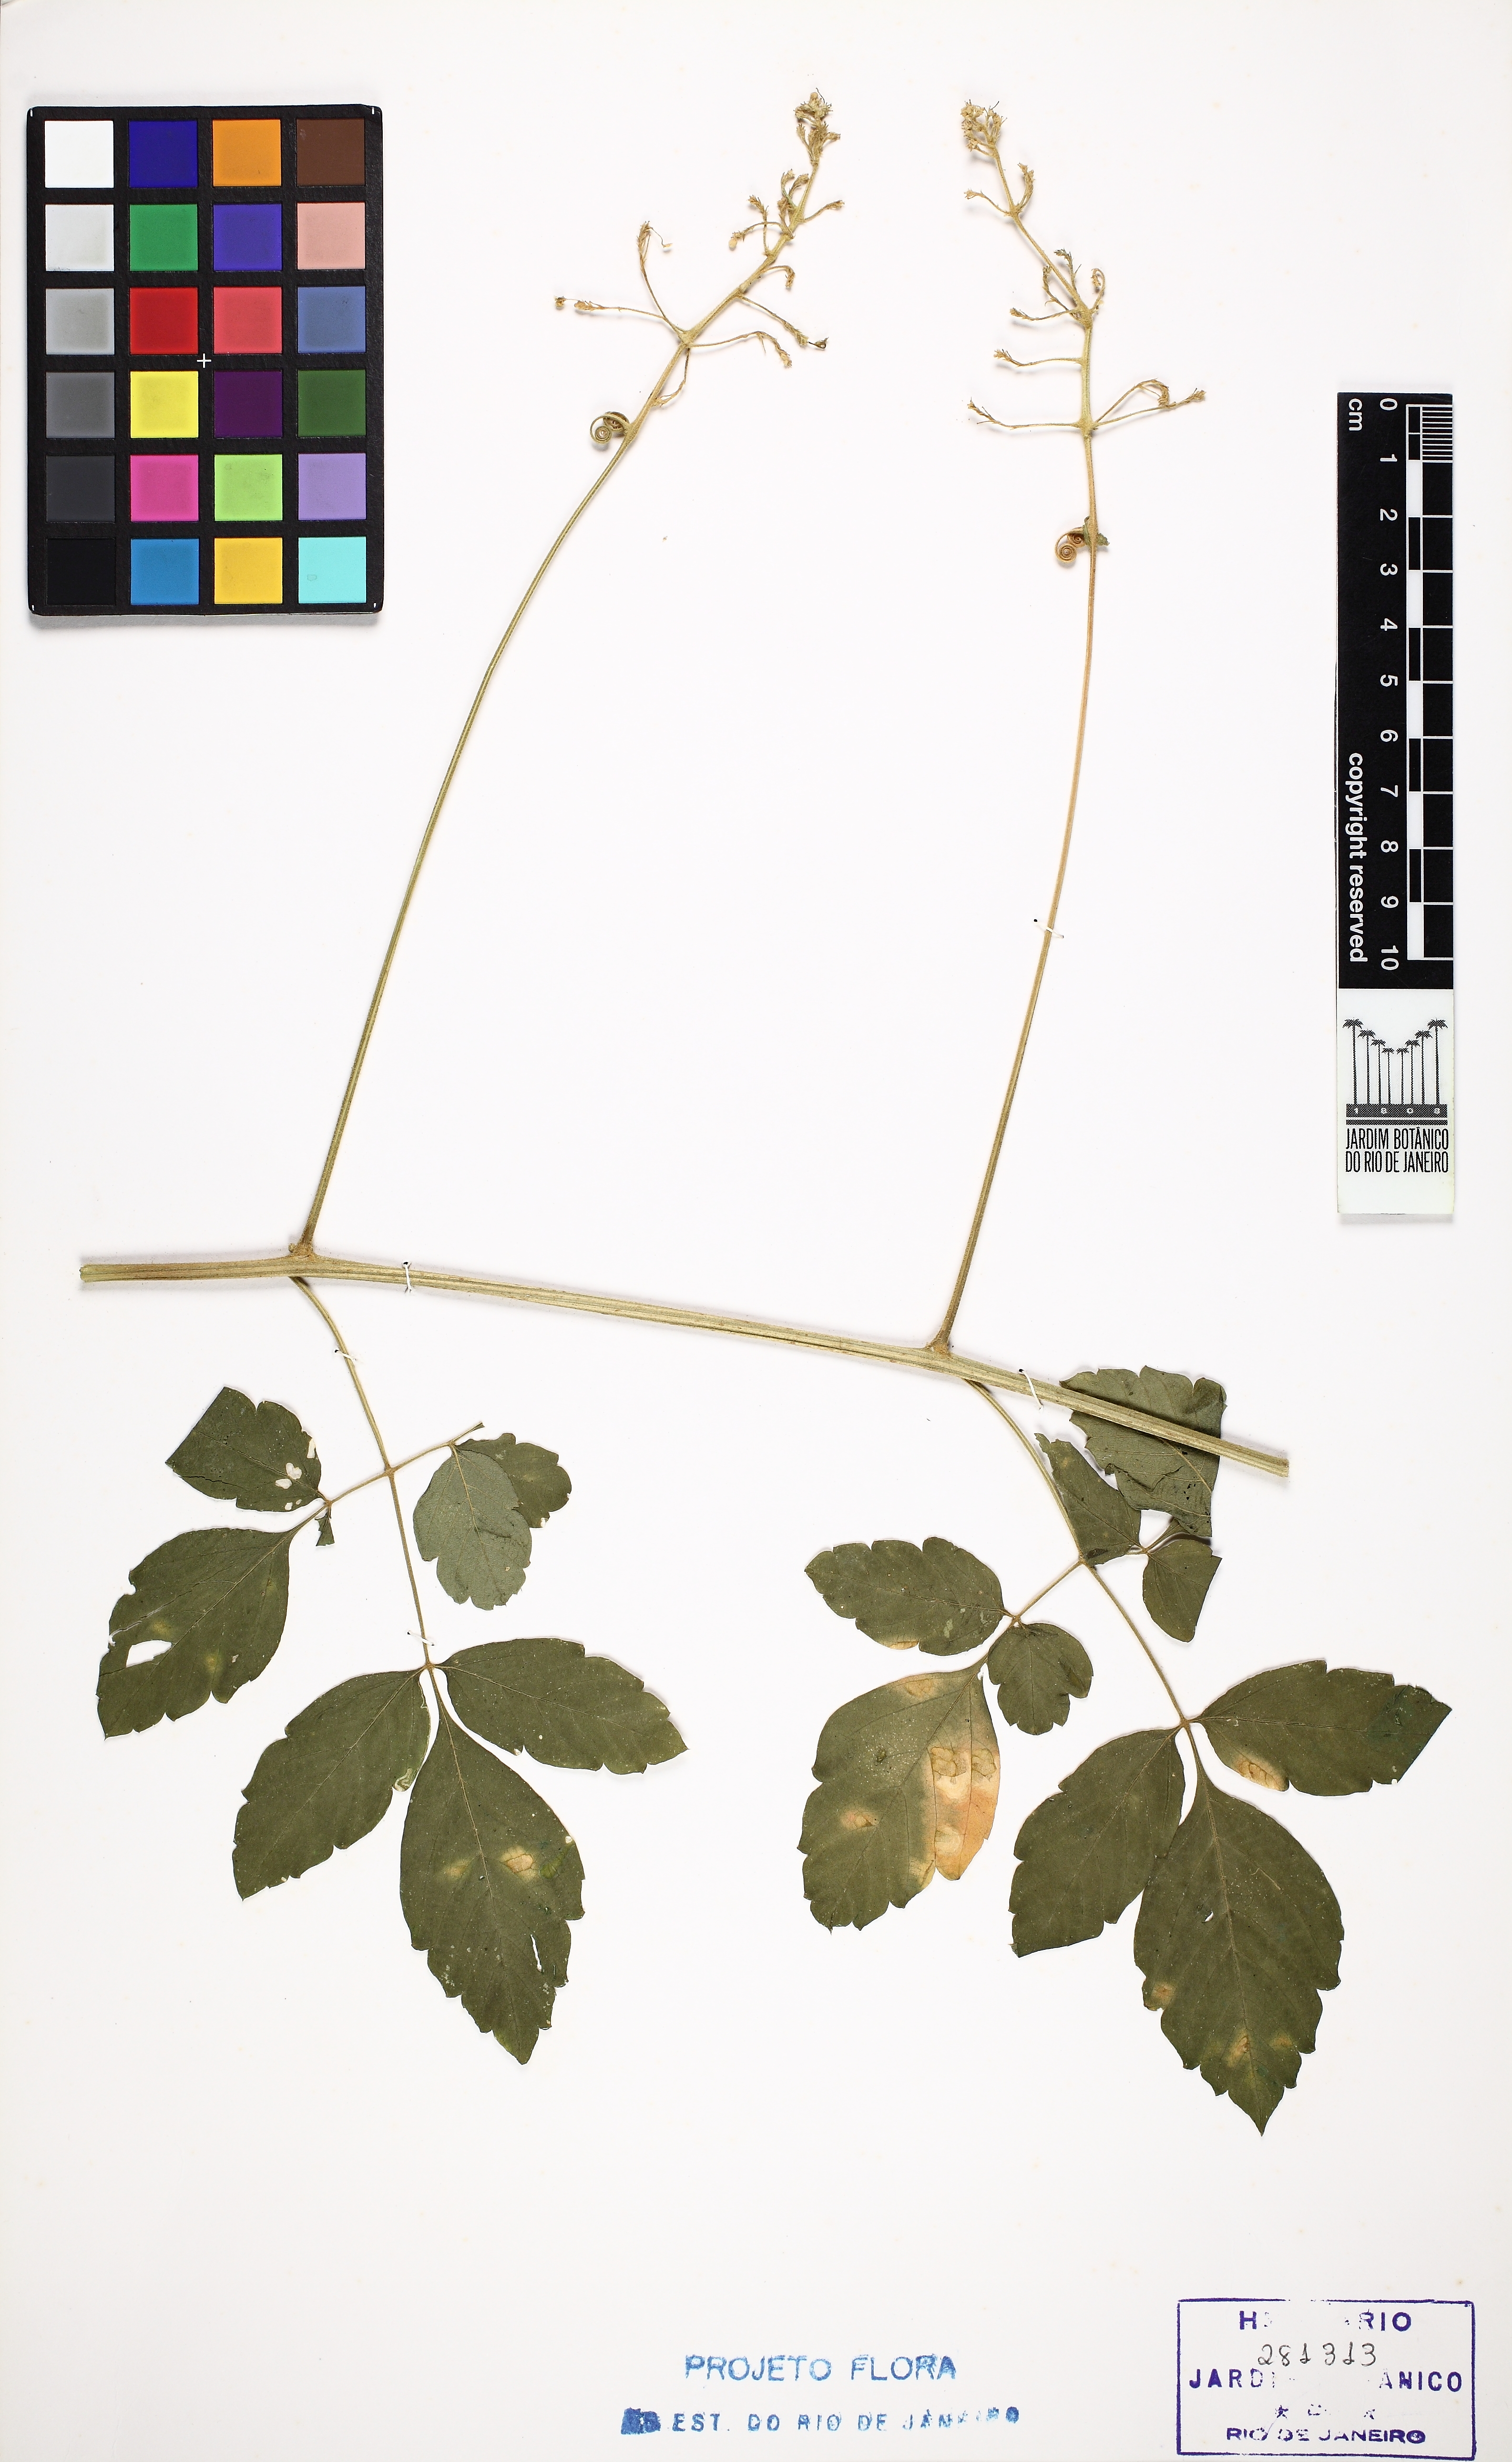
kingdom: Plantae
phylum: Tracheophyta
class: Magnoliopsida
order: Sapindales
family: Sapindaceae
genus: Cardiospermum
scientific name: Cardiospermum grandiflorum
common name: Balloon vine
